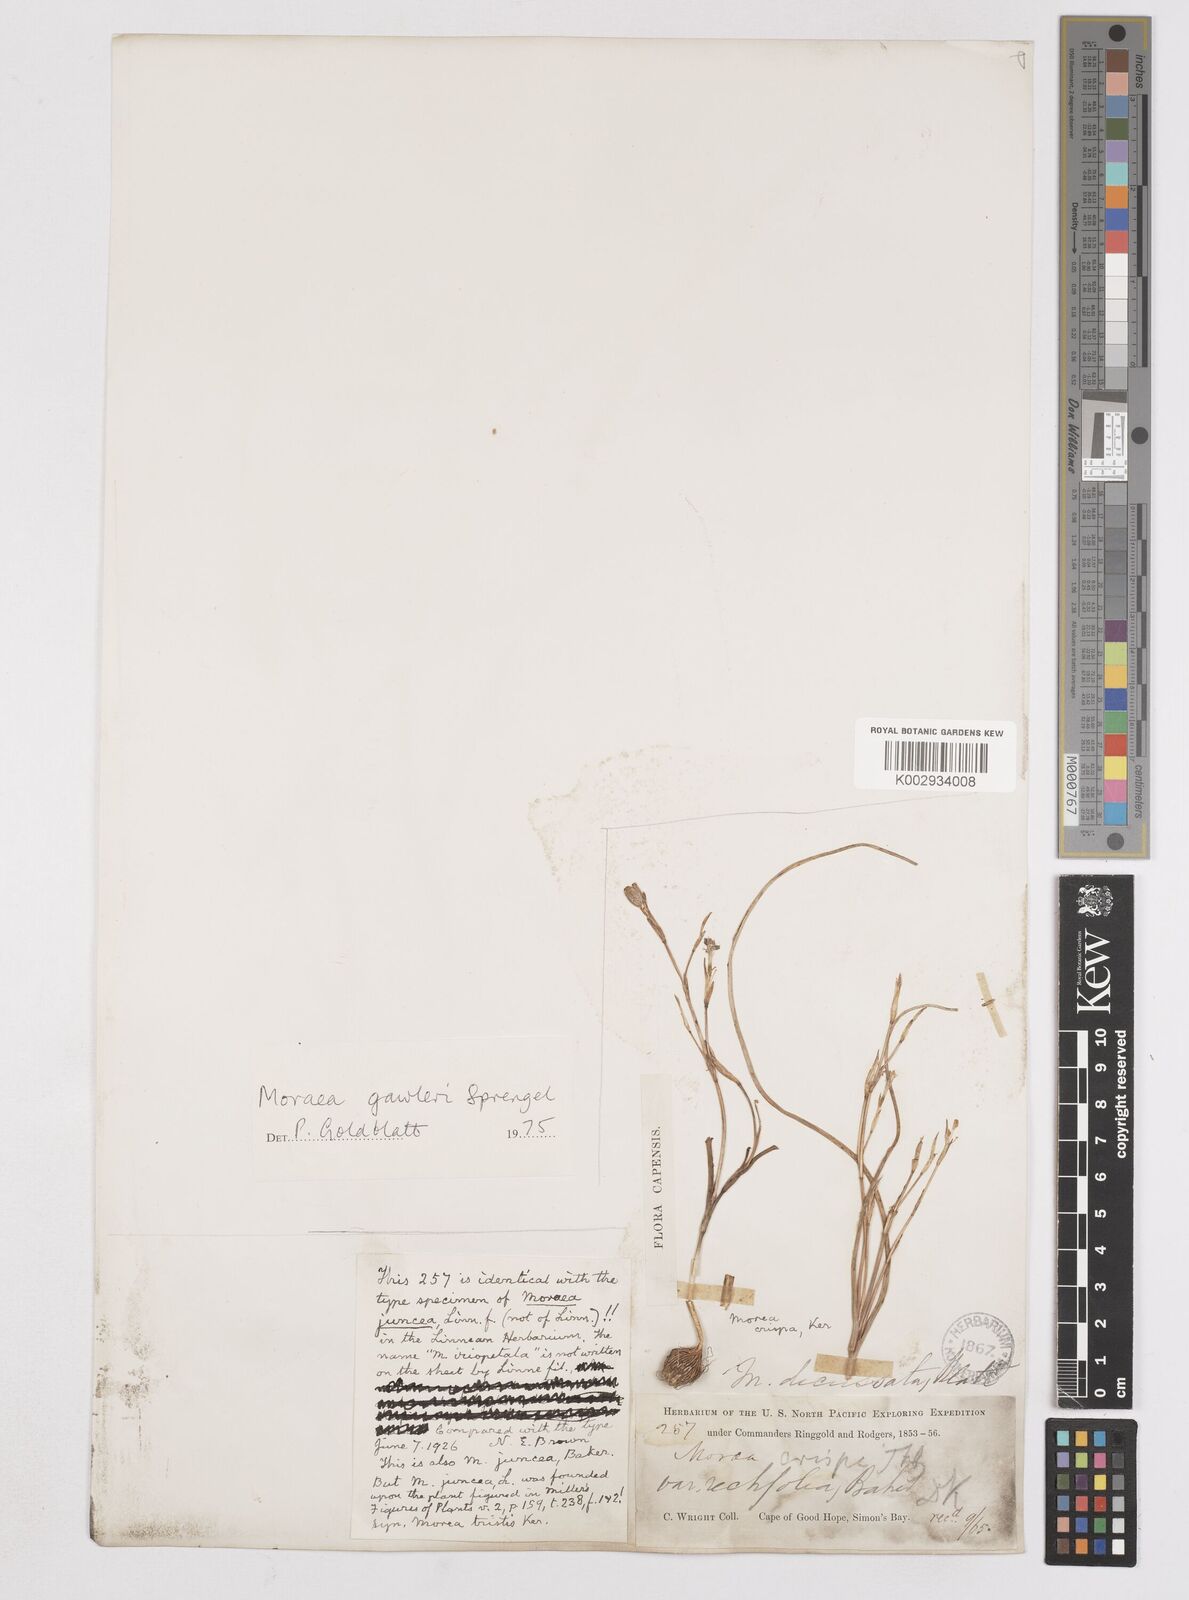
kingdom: Plantae
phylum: Tracheophyta
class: Liliopsida
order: Asparagales
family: Iridaceae
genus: Moraea
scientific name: Moraea gawleri
